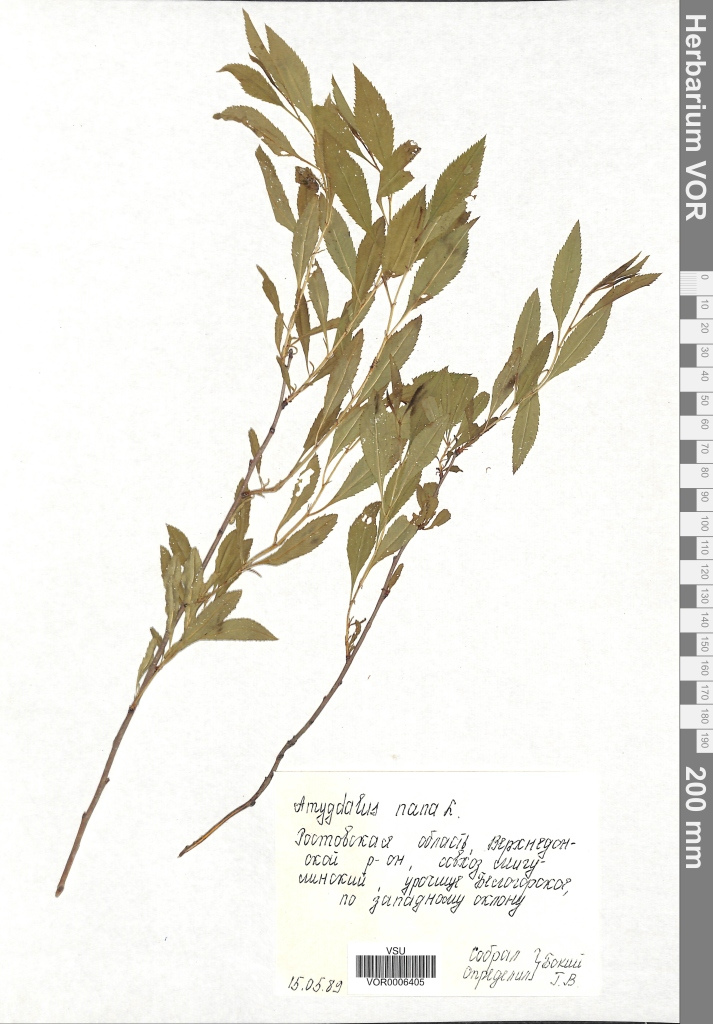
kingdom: Plantae
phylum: Tracheophyta
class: Magnoliopsida
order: Rosales
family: Rosaceae
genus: Prunus
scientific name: Prunus tenella
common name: Dwarf russian almond
